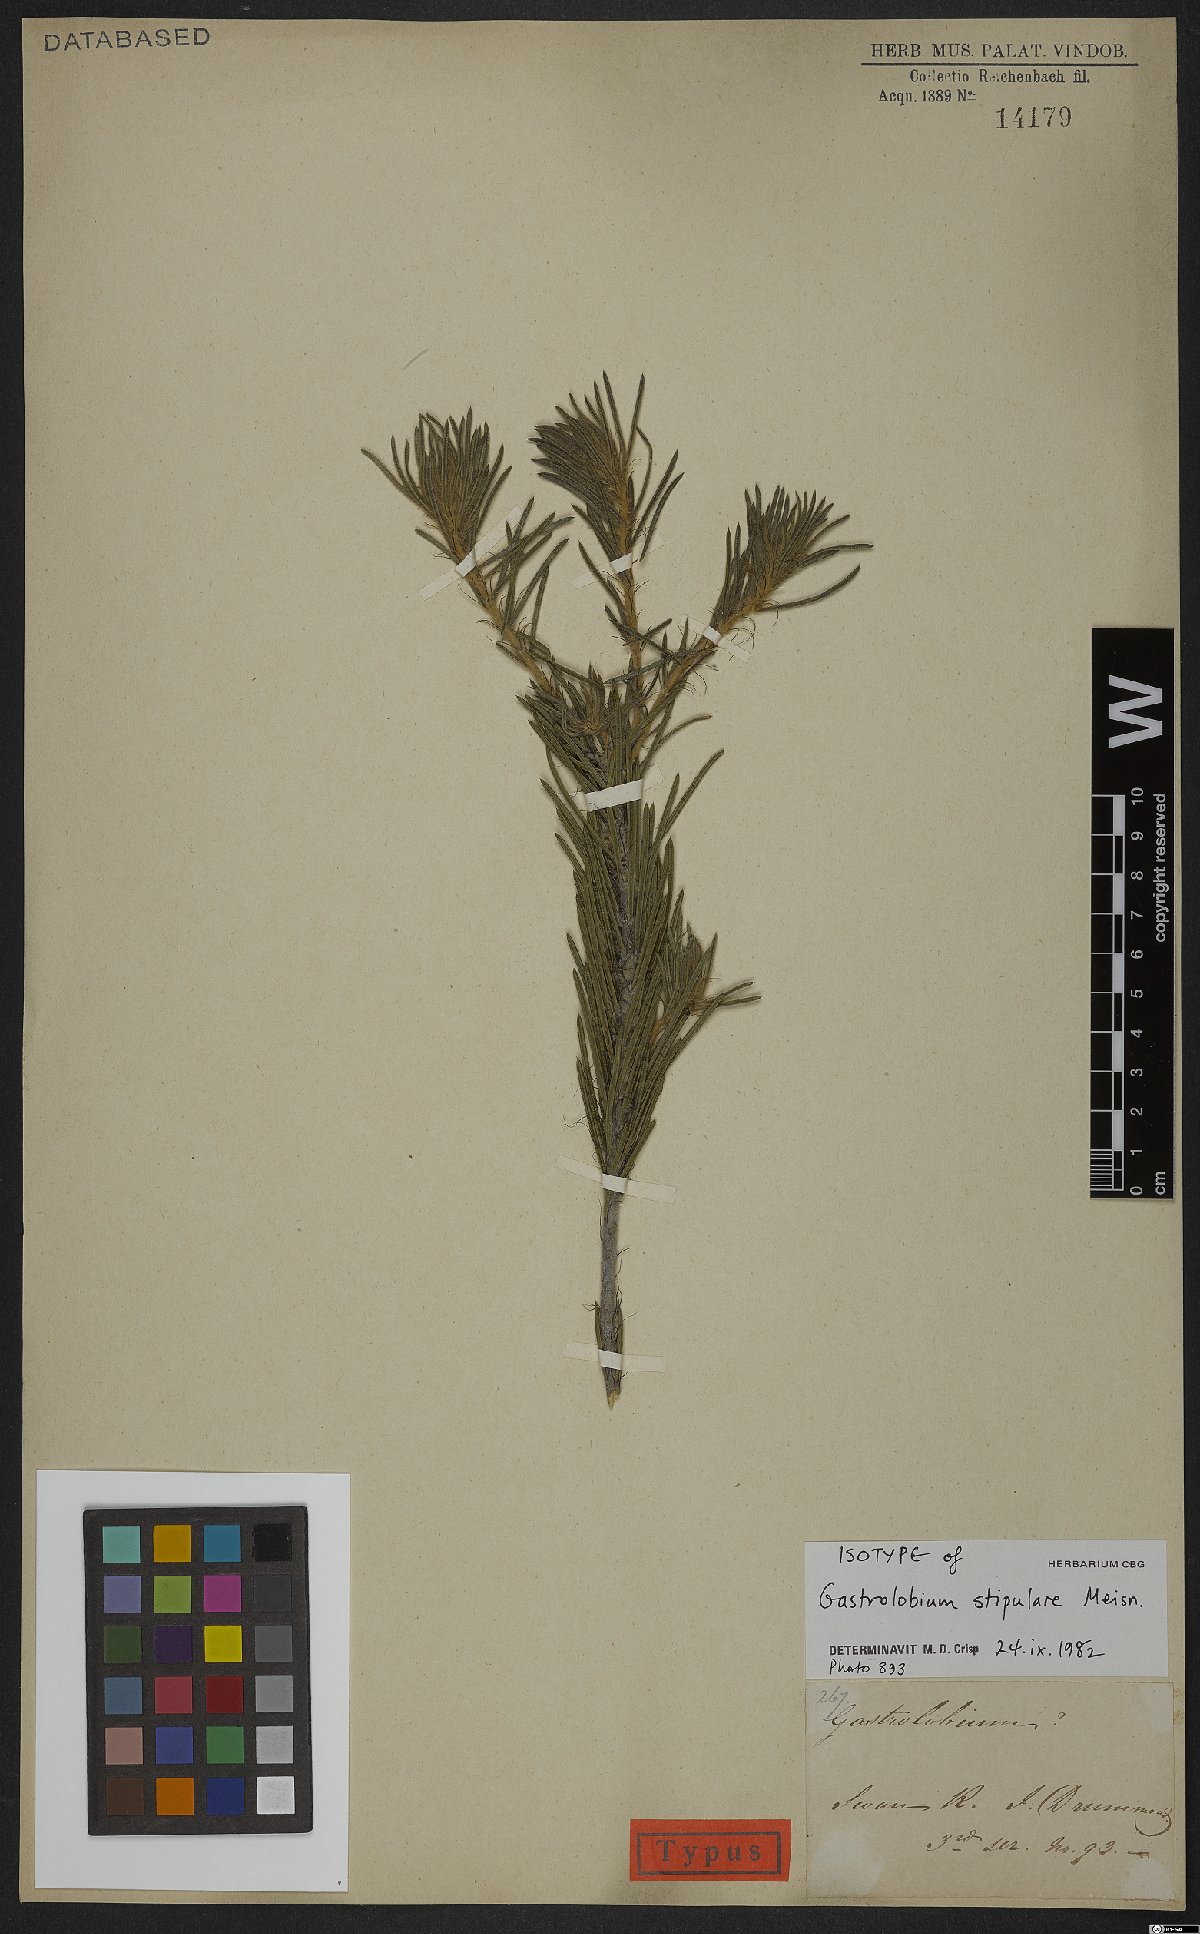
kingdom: Plantae
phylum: Tracheophyta
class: Magnoliopsida
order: Fabales
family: Fabaceae
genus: Gastrolobium
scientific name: Gastrolobium stipulare
